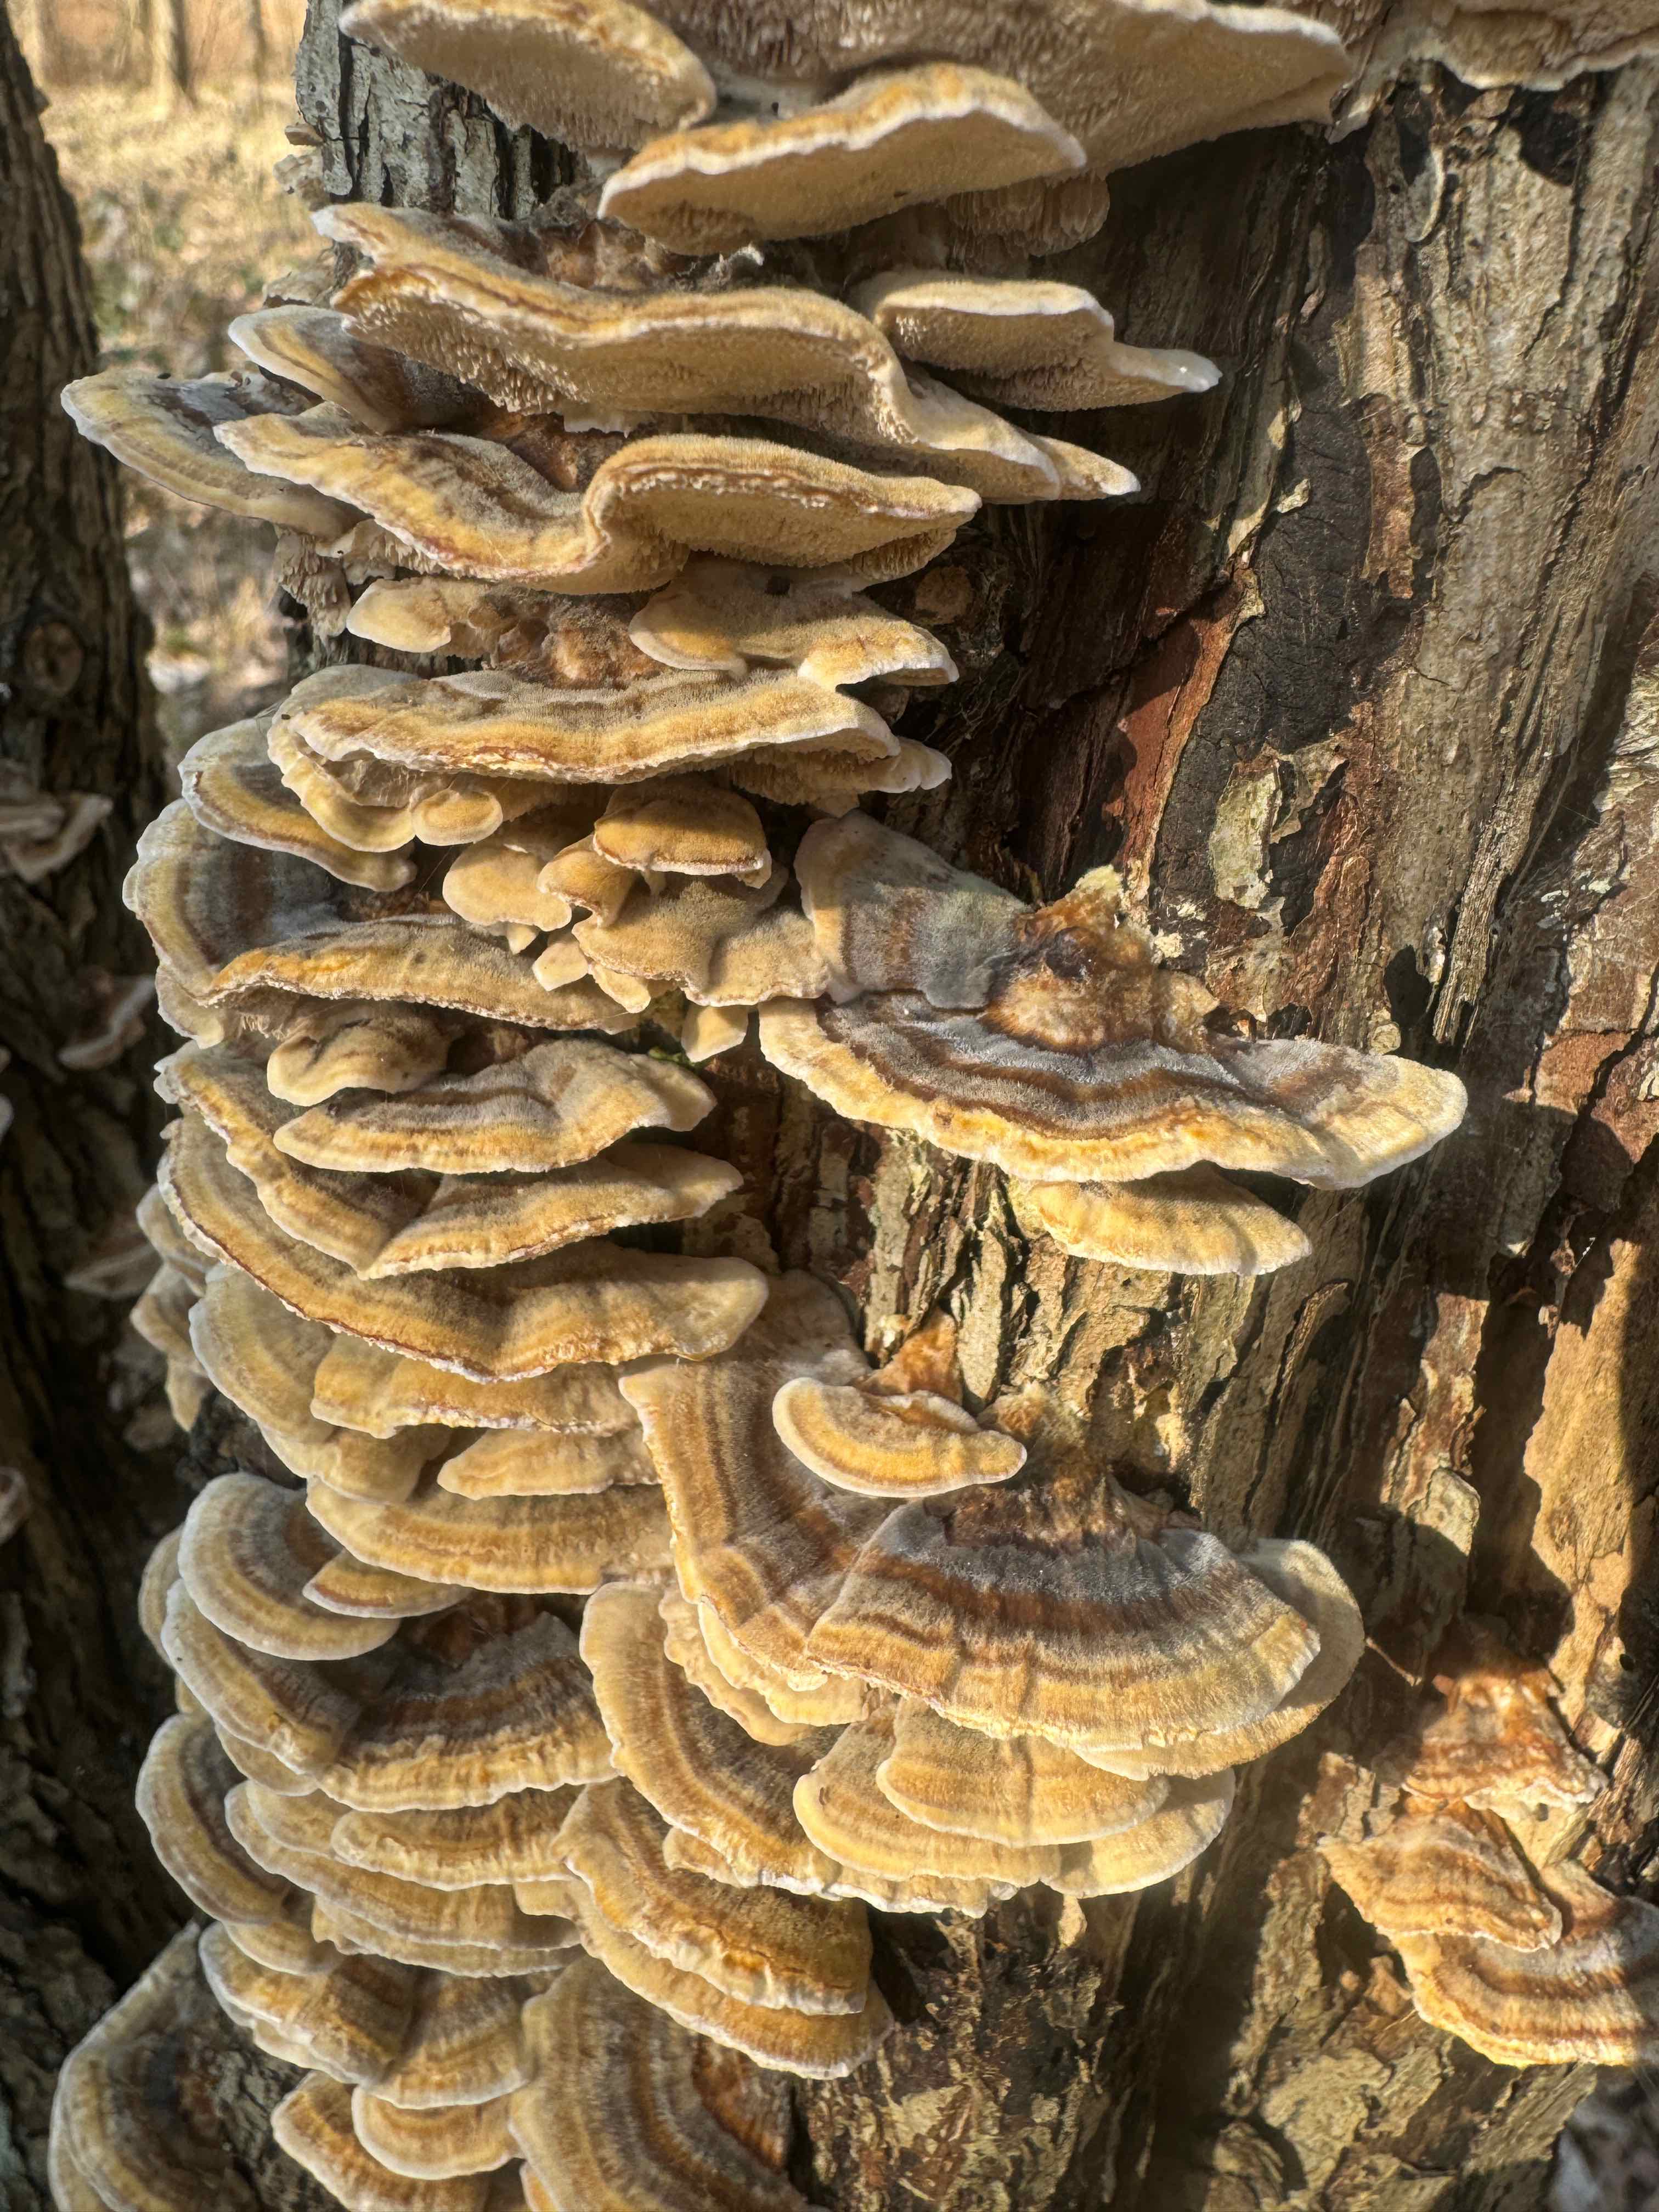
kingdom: Fungi
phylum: Basidiomycota
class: Agaricomycetes
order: Polyporales
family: Polyporaceae
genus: Trametes
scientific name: Trametes versicolor
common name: broget læderporesvamp
